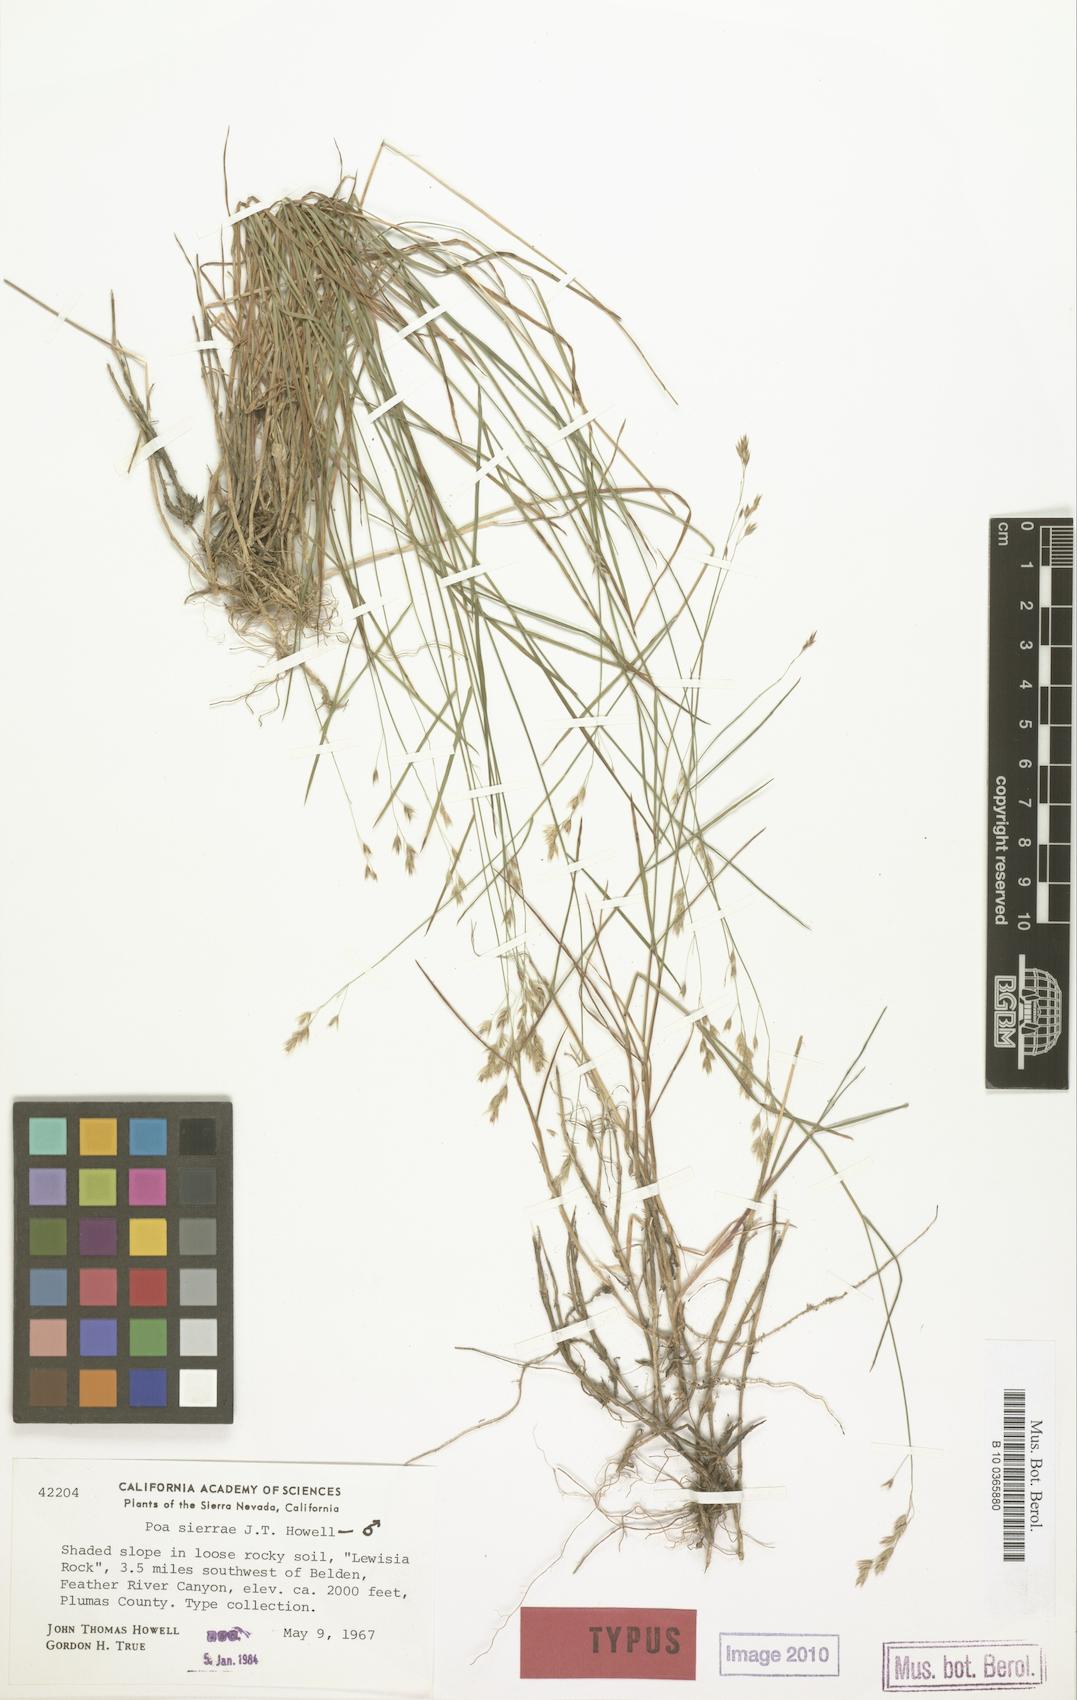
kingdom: Plantae
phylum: Tracheophyta
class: Liliopsida
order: Poales
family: Poaceae
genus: Poa
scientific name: Poa sierrae
